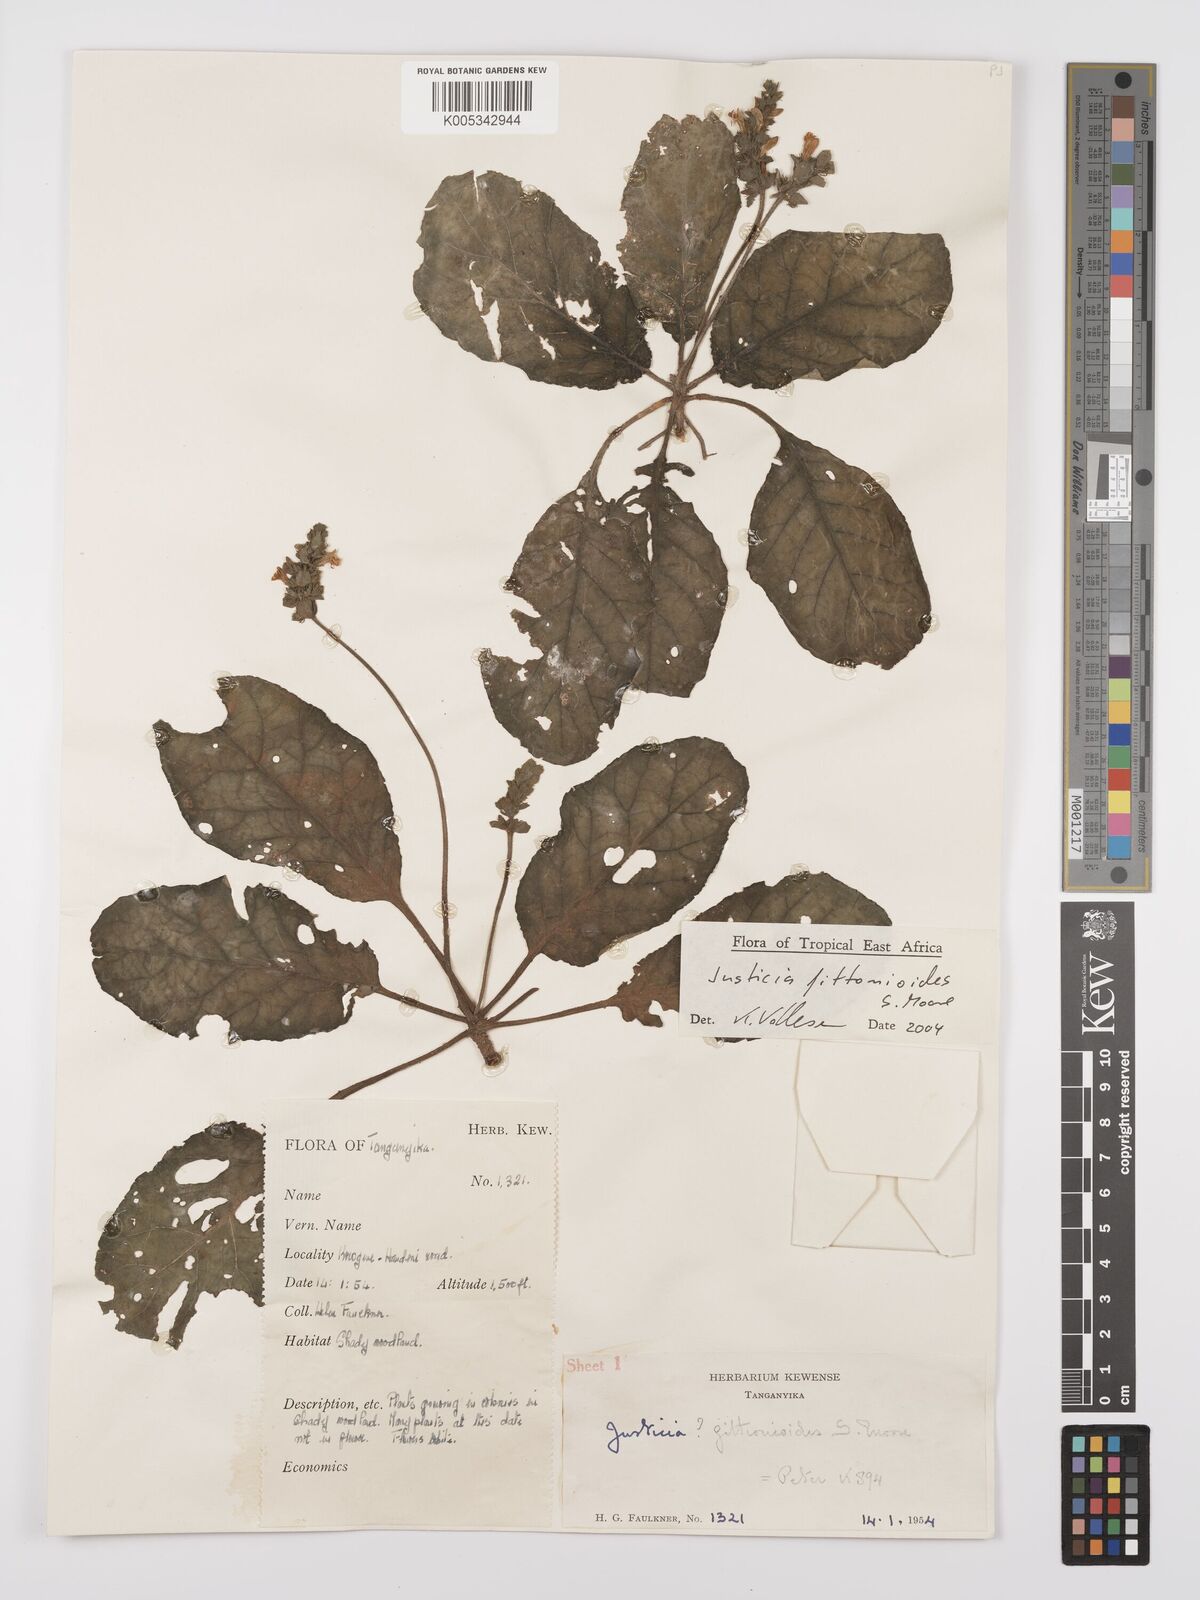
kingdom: Plantae
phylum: Tracheophyta
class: Magnoliopsida
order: Lamiales
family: Acanthaceae
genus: Justicia
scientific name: Justicia
